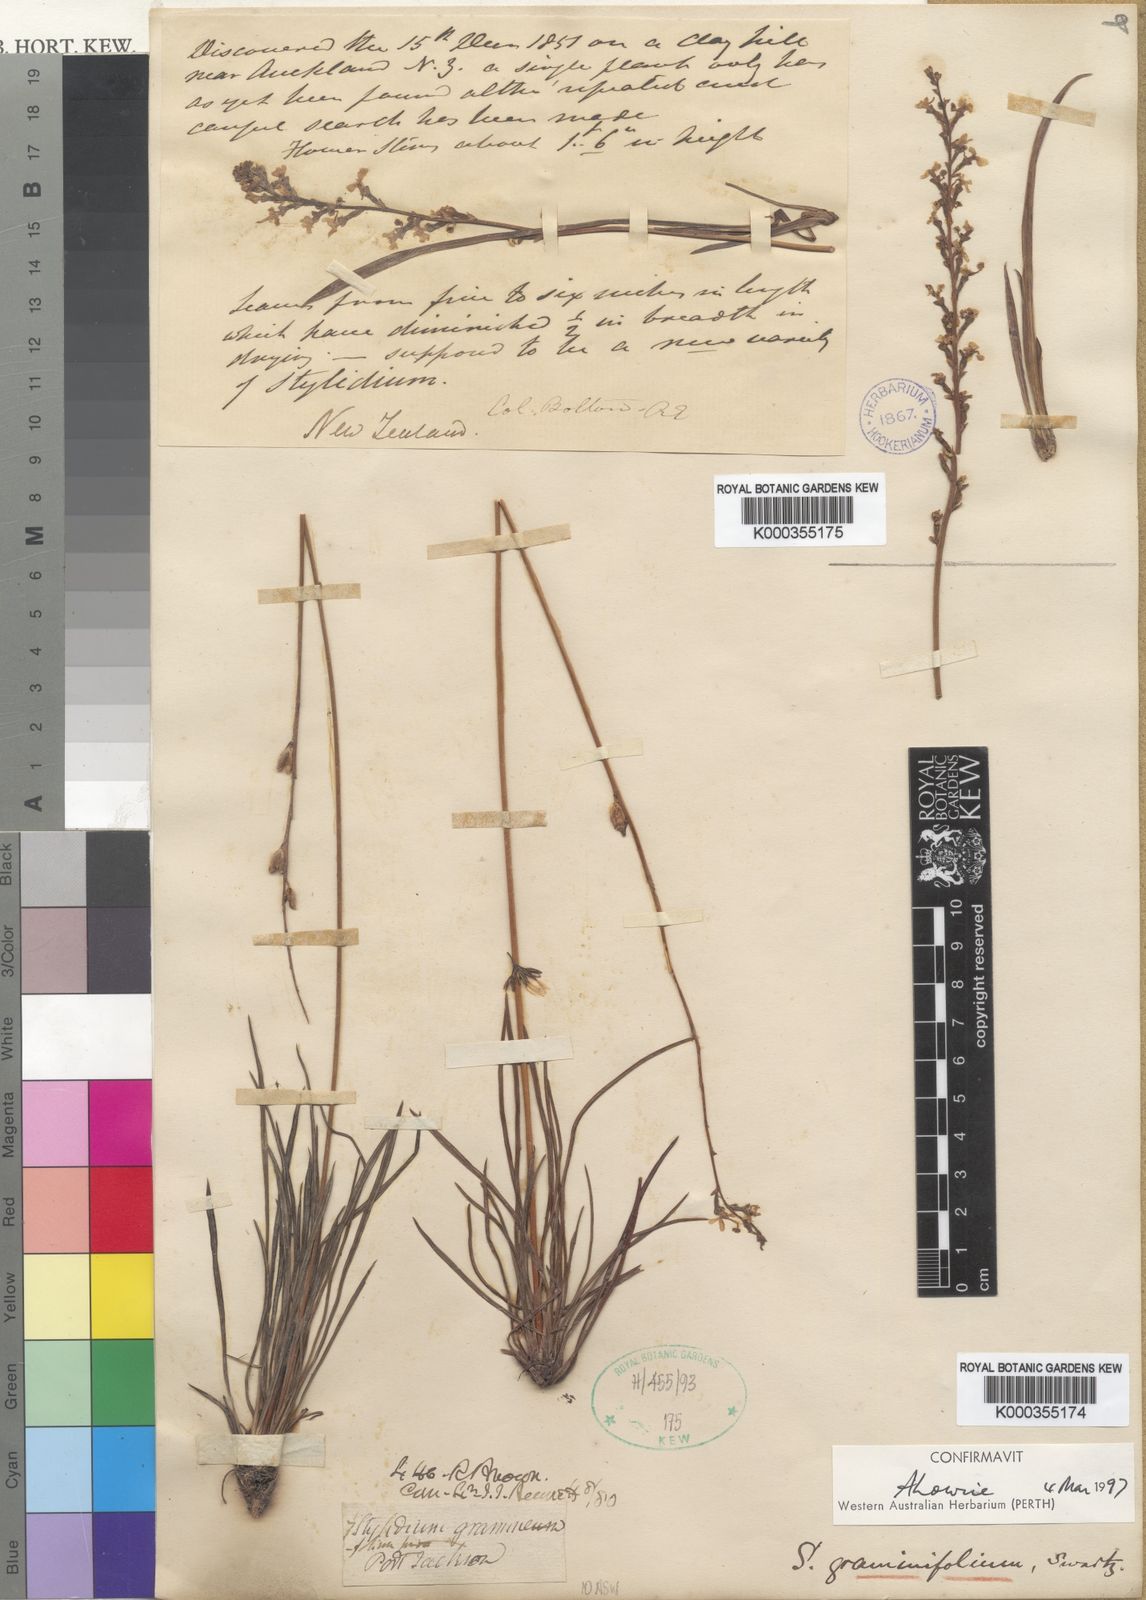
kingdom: Plantae
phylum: Tracheophyta
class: Magnoliopsida
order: Asterales
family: Stylidiaceae
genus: Stylidium
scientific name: Stylidium graminifolium
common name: Grass triggerplant
